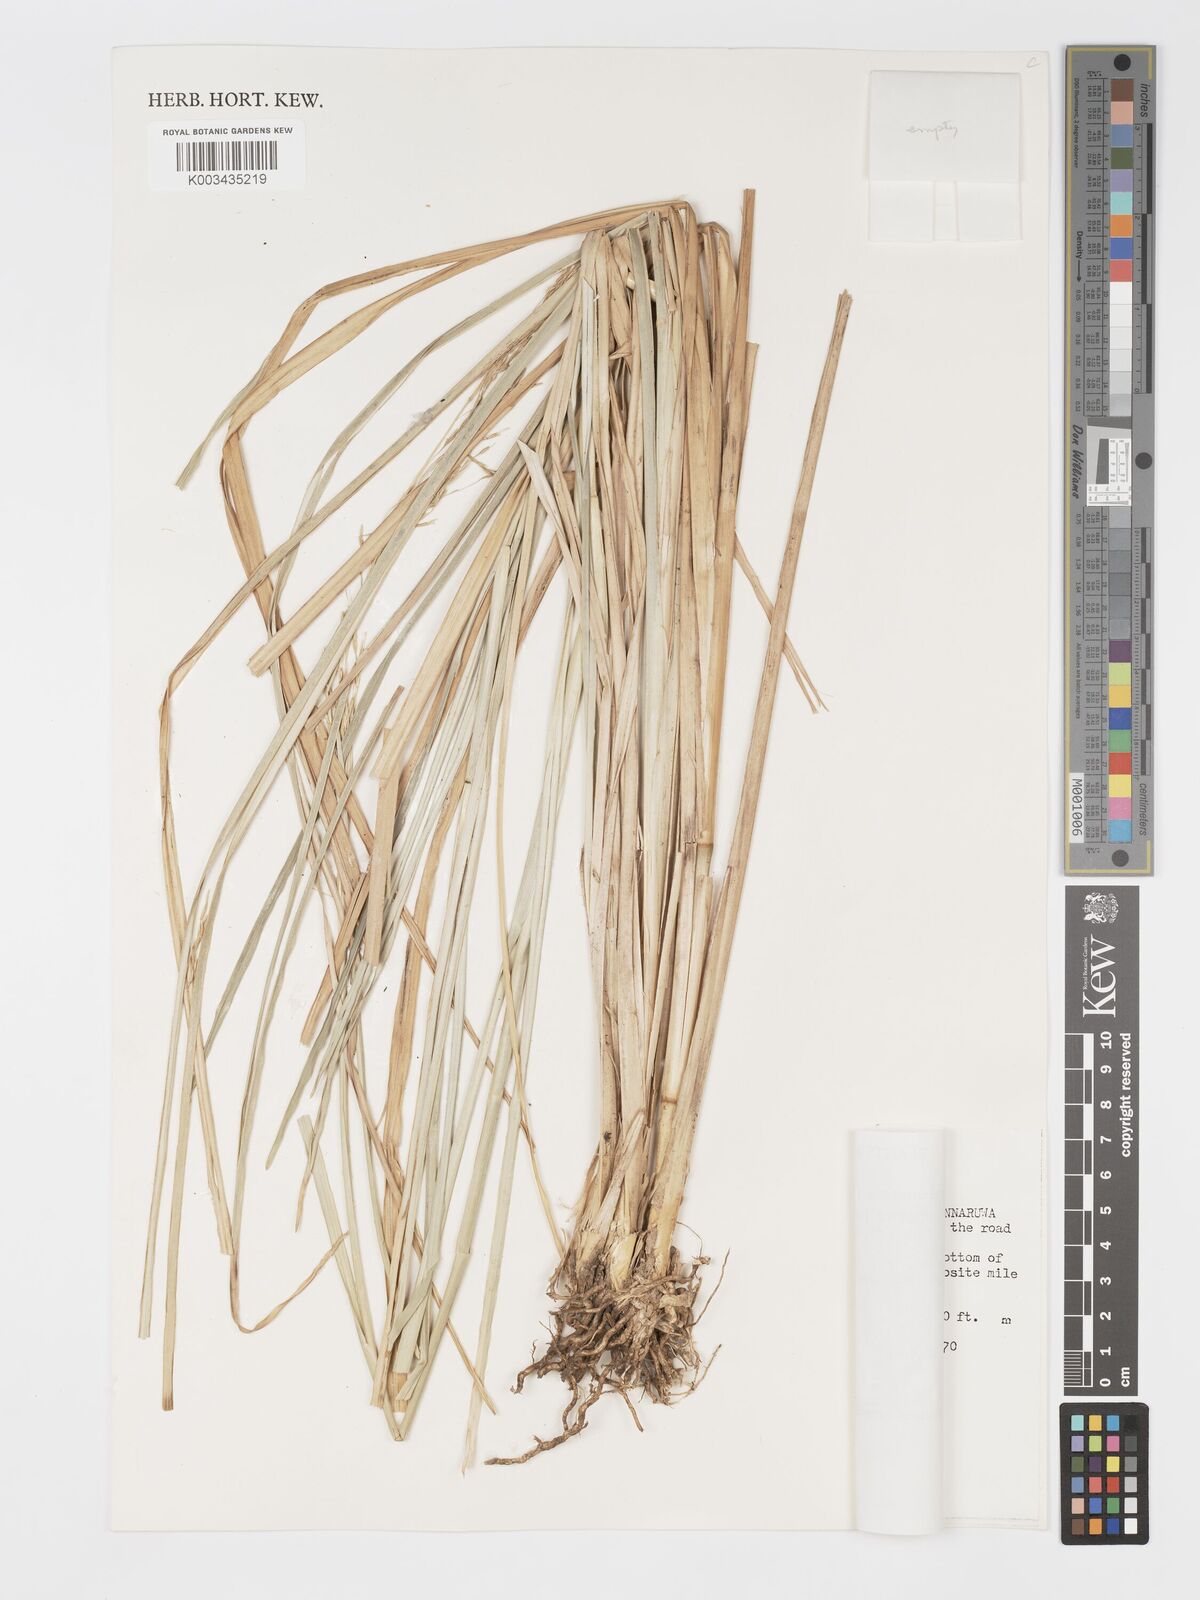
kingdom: Plantae
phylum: Tracheophyta
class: Liliopsida
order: Poales
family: Poaceae
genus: Chrysopogon
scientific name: Chrysopogon zizanioides
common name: False beardgrass
